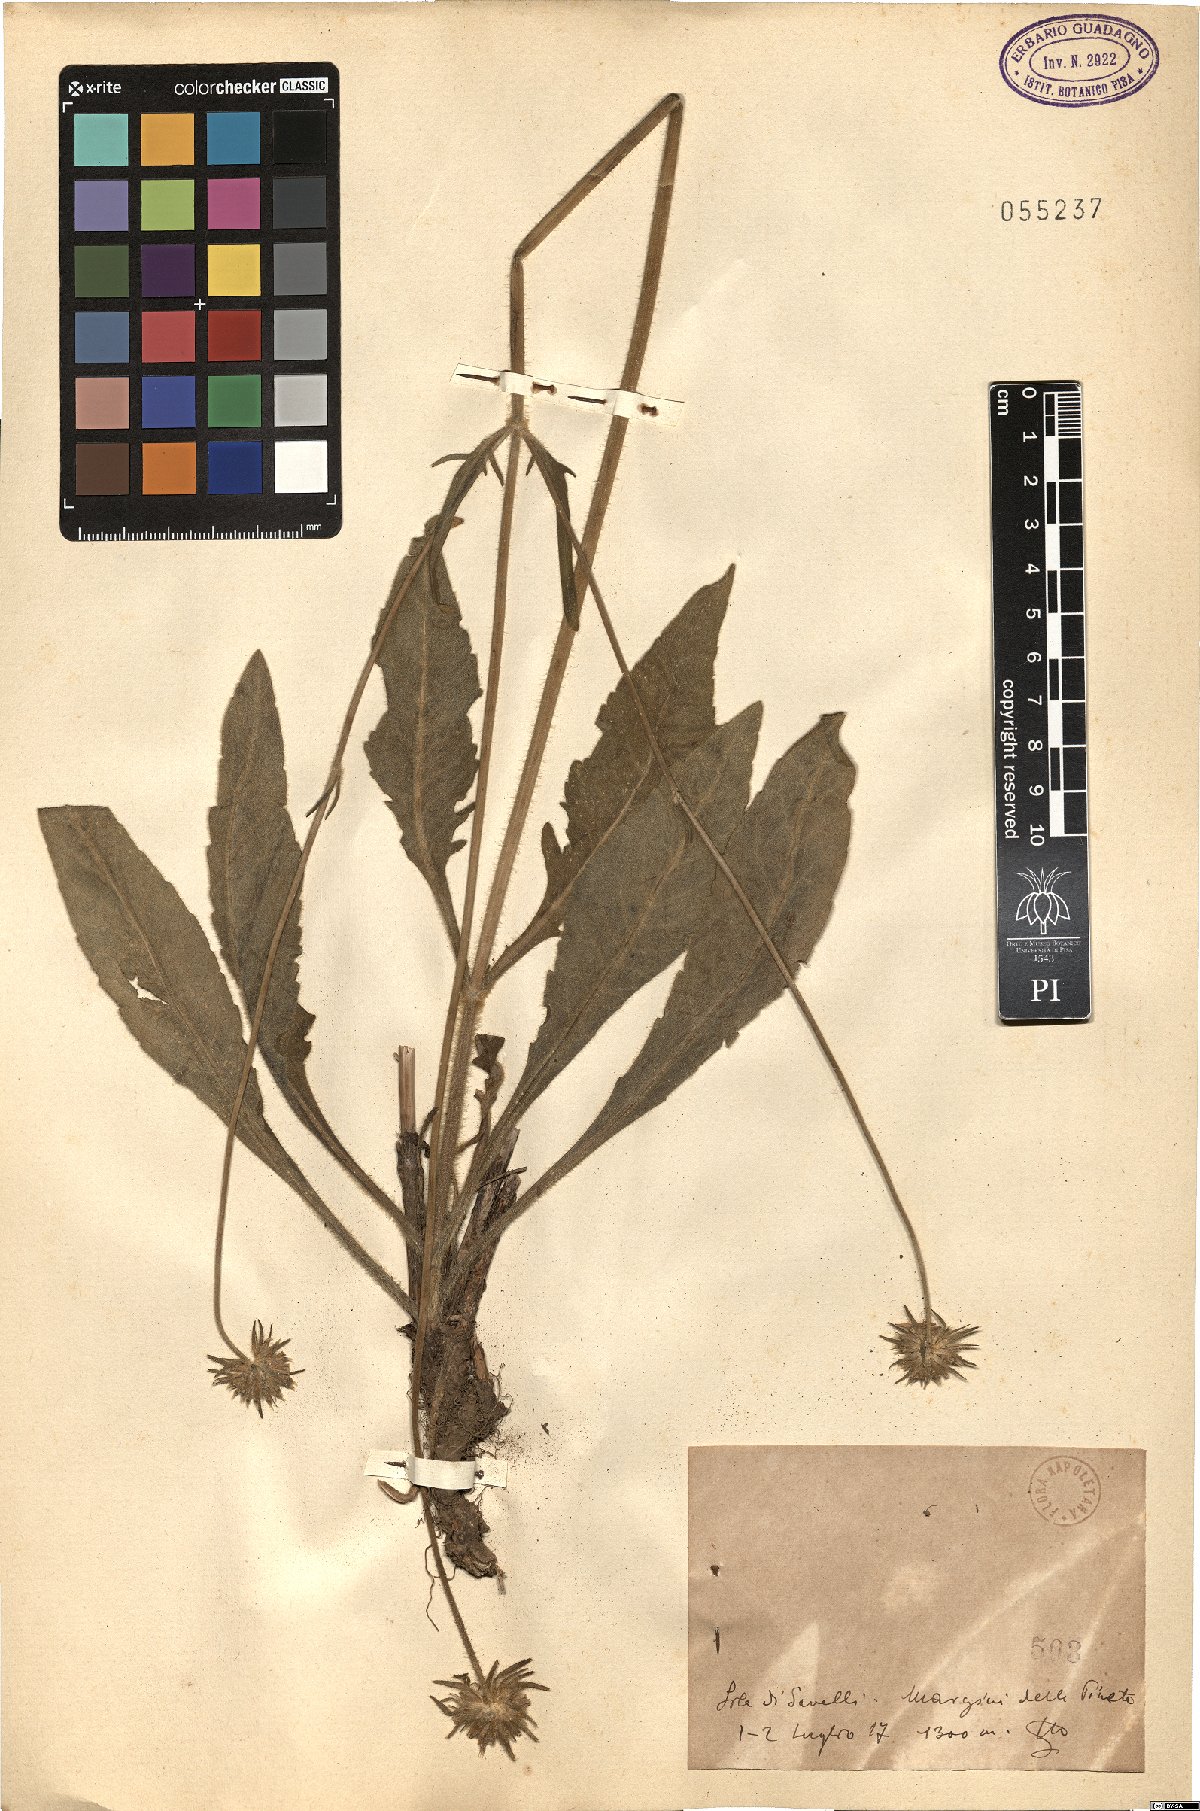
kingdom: Plantae
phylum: Tracheophyta
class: Magnoliopsida
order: Dipsacales
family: Caprifoliaceae
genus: Knautia
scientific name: Knautia
